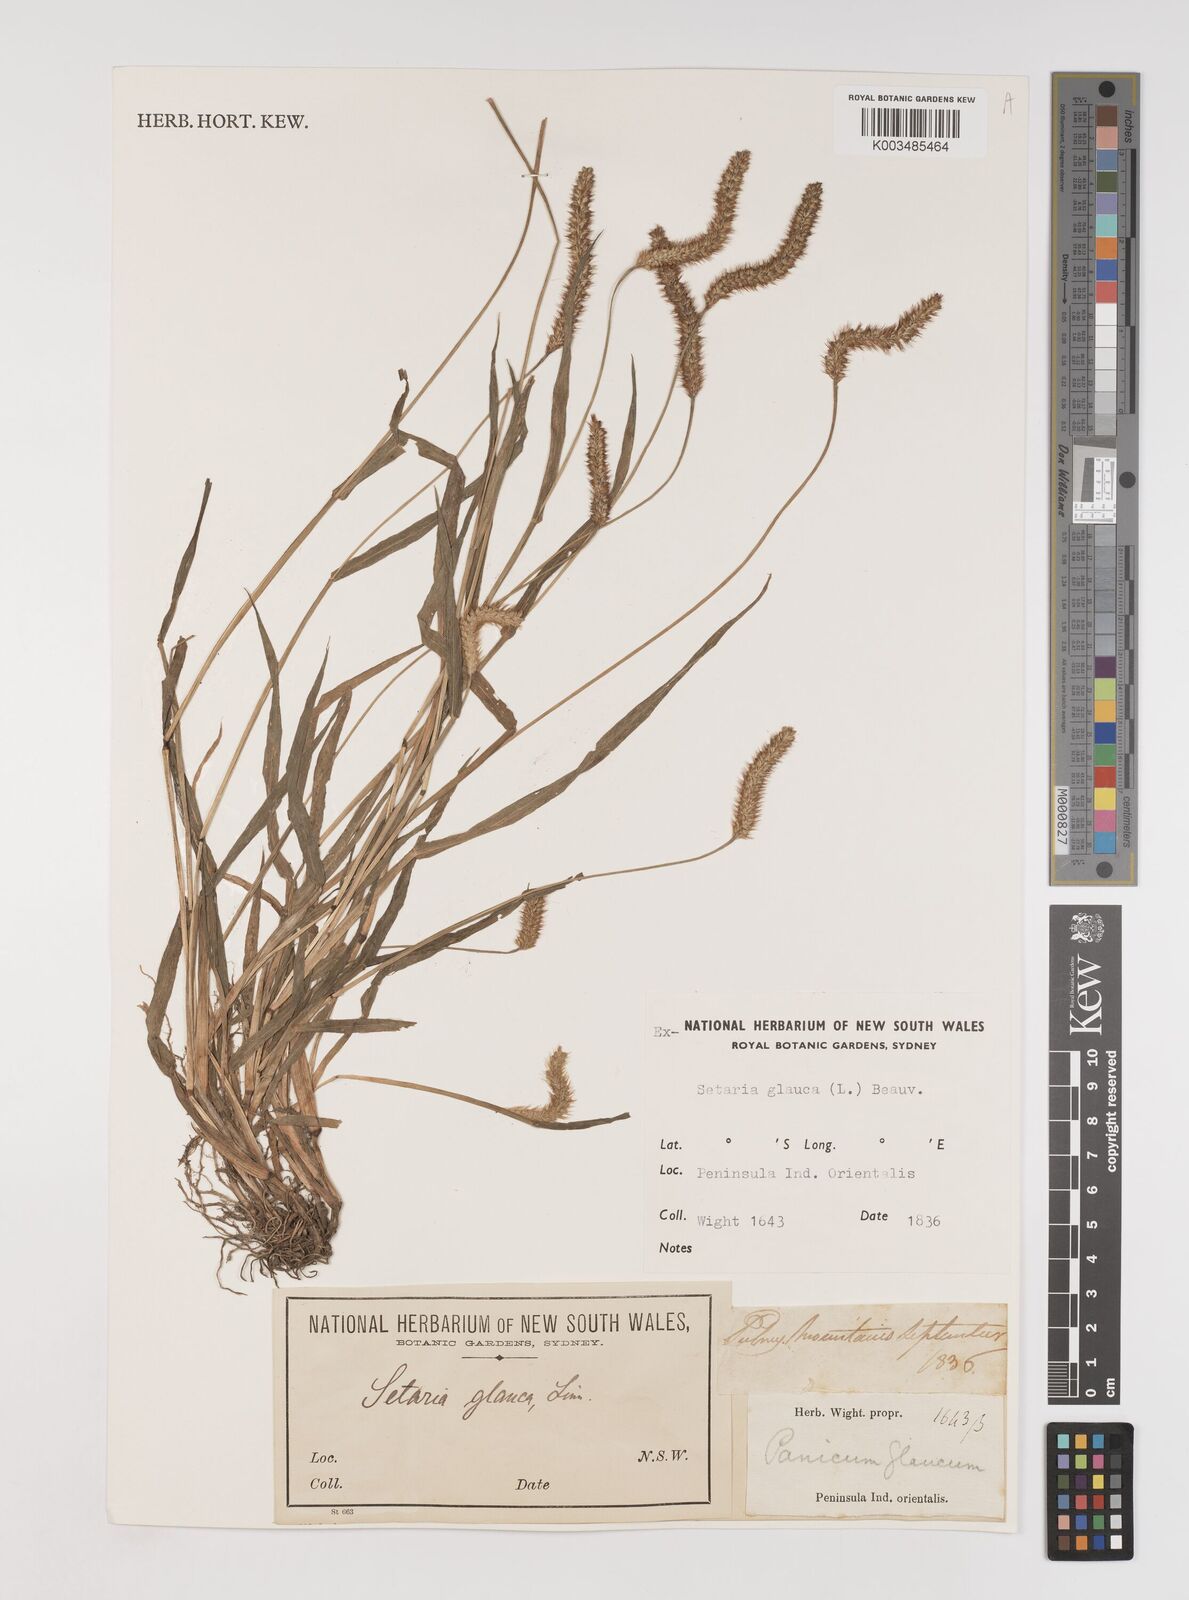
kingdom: Plantae
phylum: Tracheophyta
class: Liliopsida
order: Poales
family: Poaceae
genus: Setaria
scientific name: Setaria pumila
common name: Yellow bristle-grass
